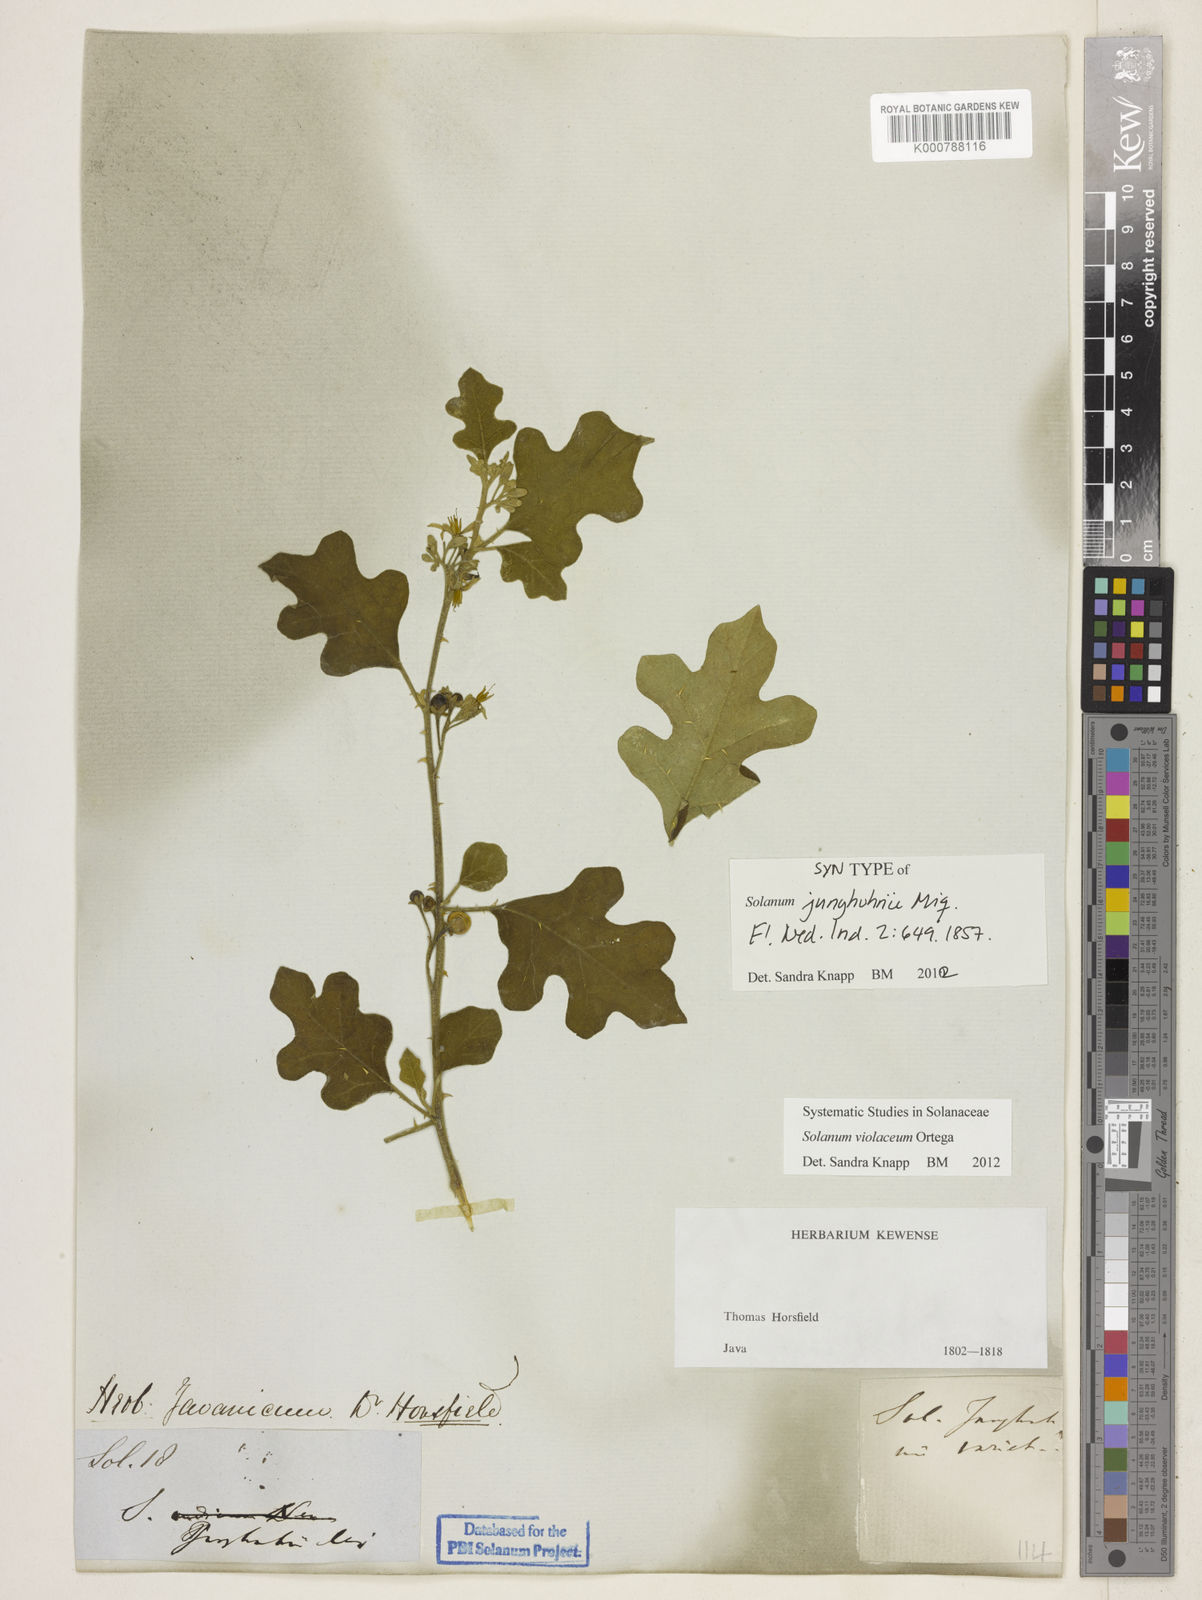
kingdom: Plantae
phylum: Tracheophyta
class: Magnoliopsida
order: Solanales
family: Solanaceae
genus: Solanum
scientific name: Solanum violaceum
